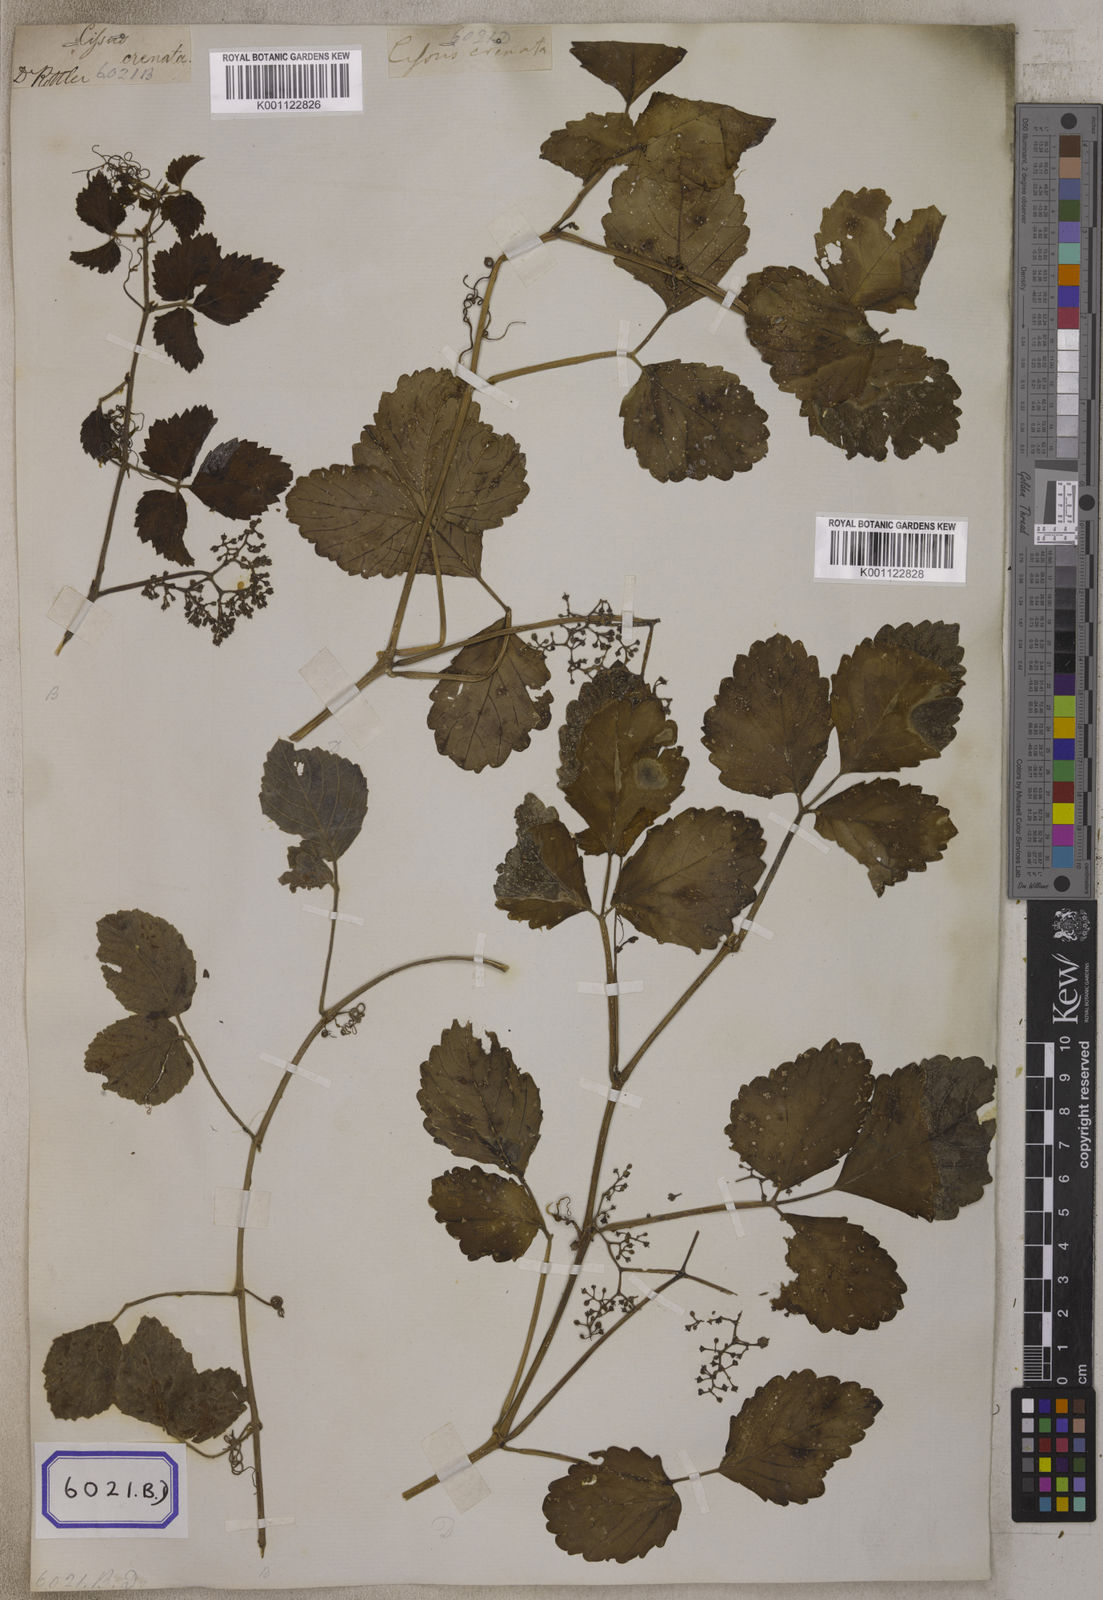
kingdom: Plantae
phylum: Tracheophyta
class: Magnoliopsida
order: Vitales
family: Vitaceae
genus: Causonis
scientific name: Causonis trifolia
